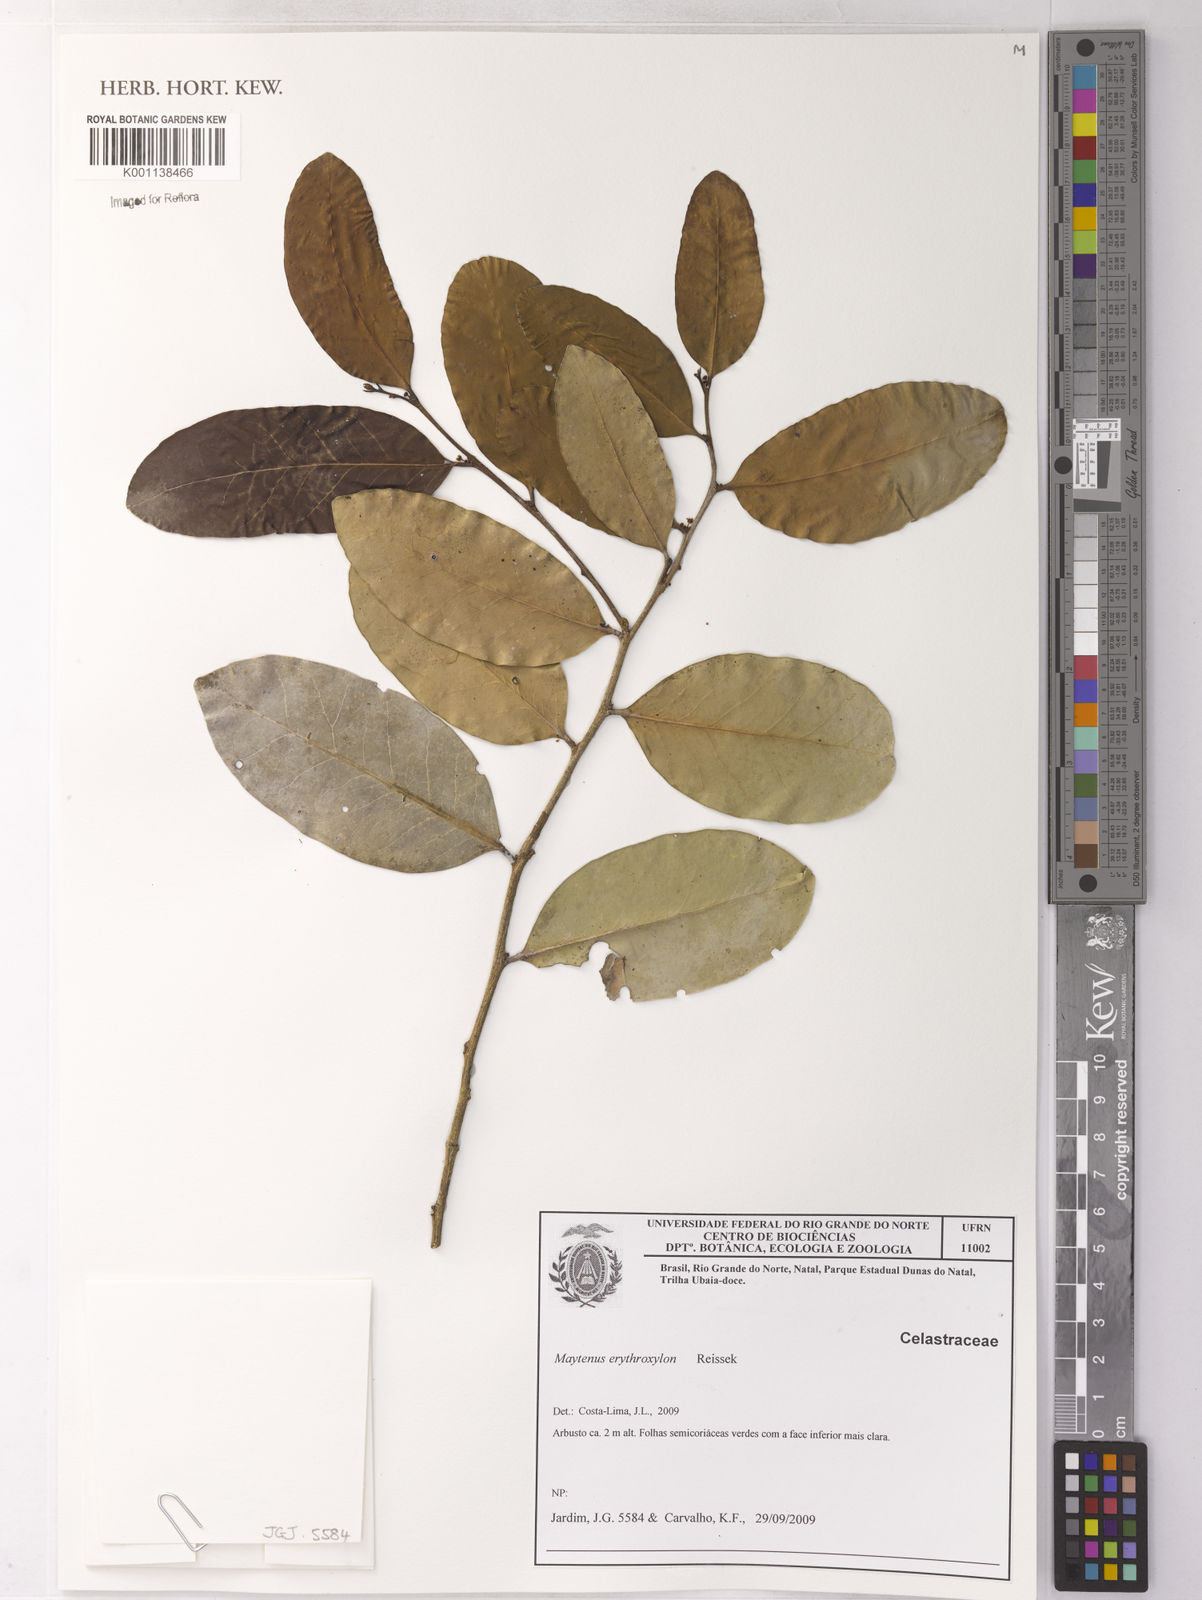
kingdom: Plantae
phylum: Tracheophyta
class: Magnoliopsida
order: Celastrales
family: Celastraceae
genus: Monteverdia
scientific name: Monteverdia erythroxylon
